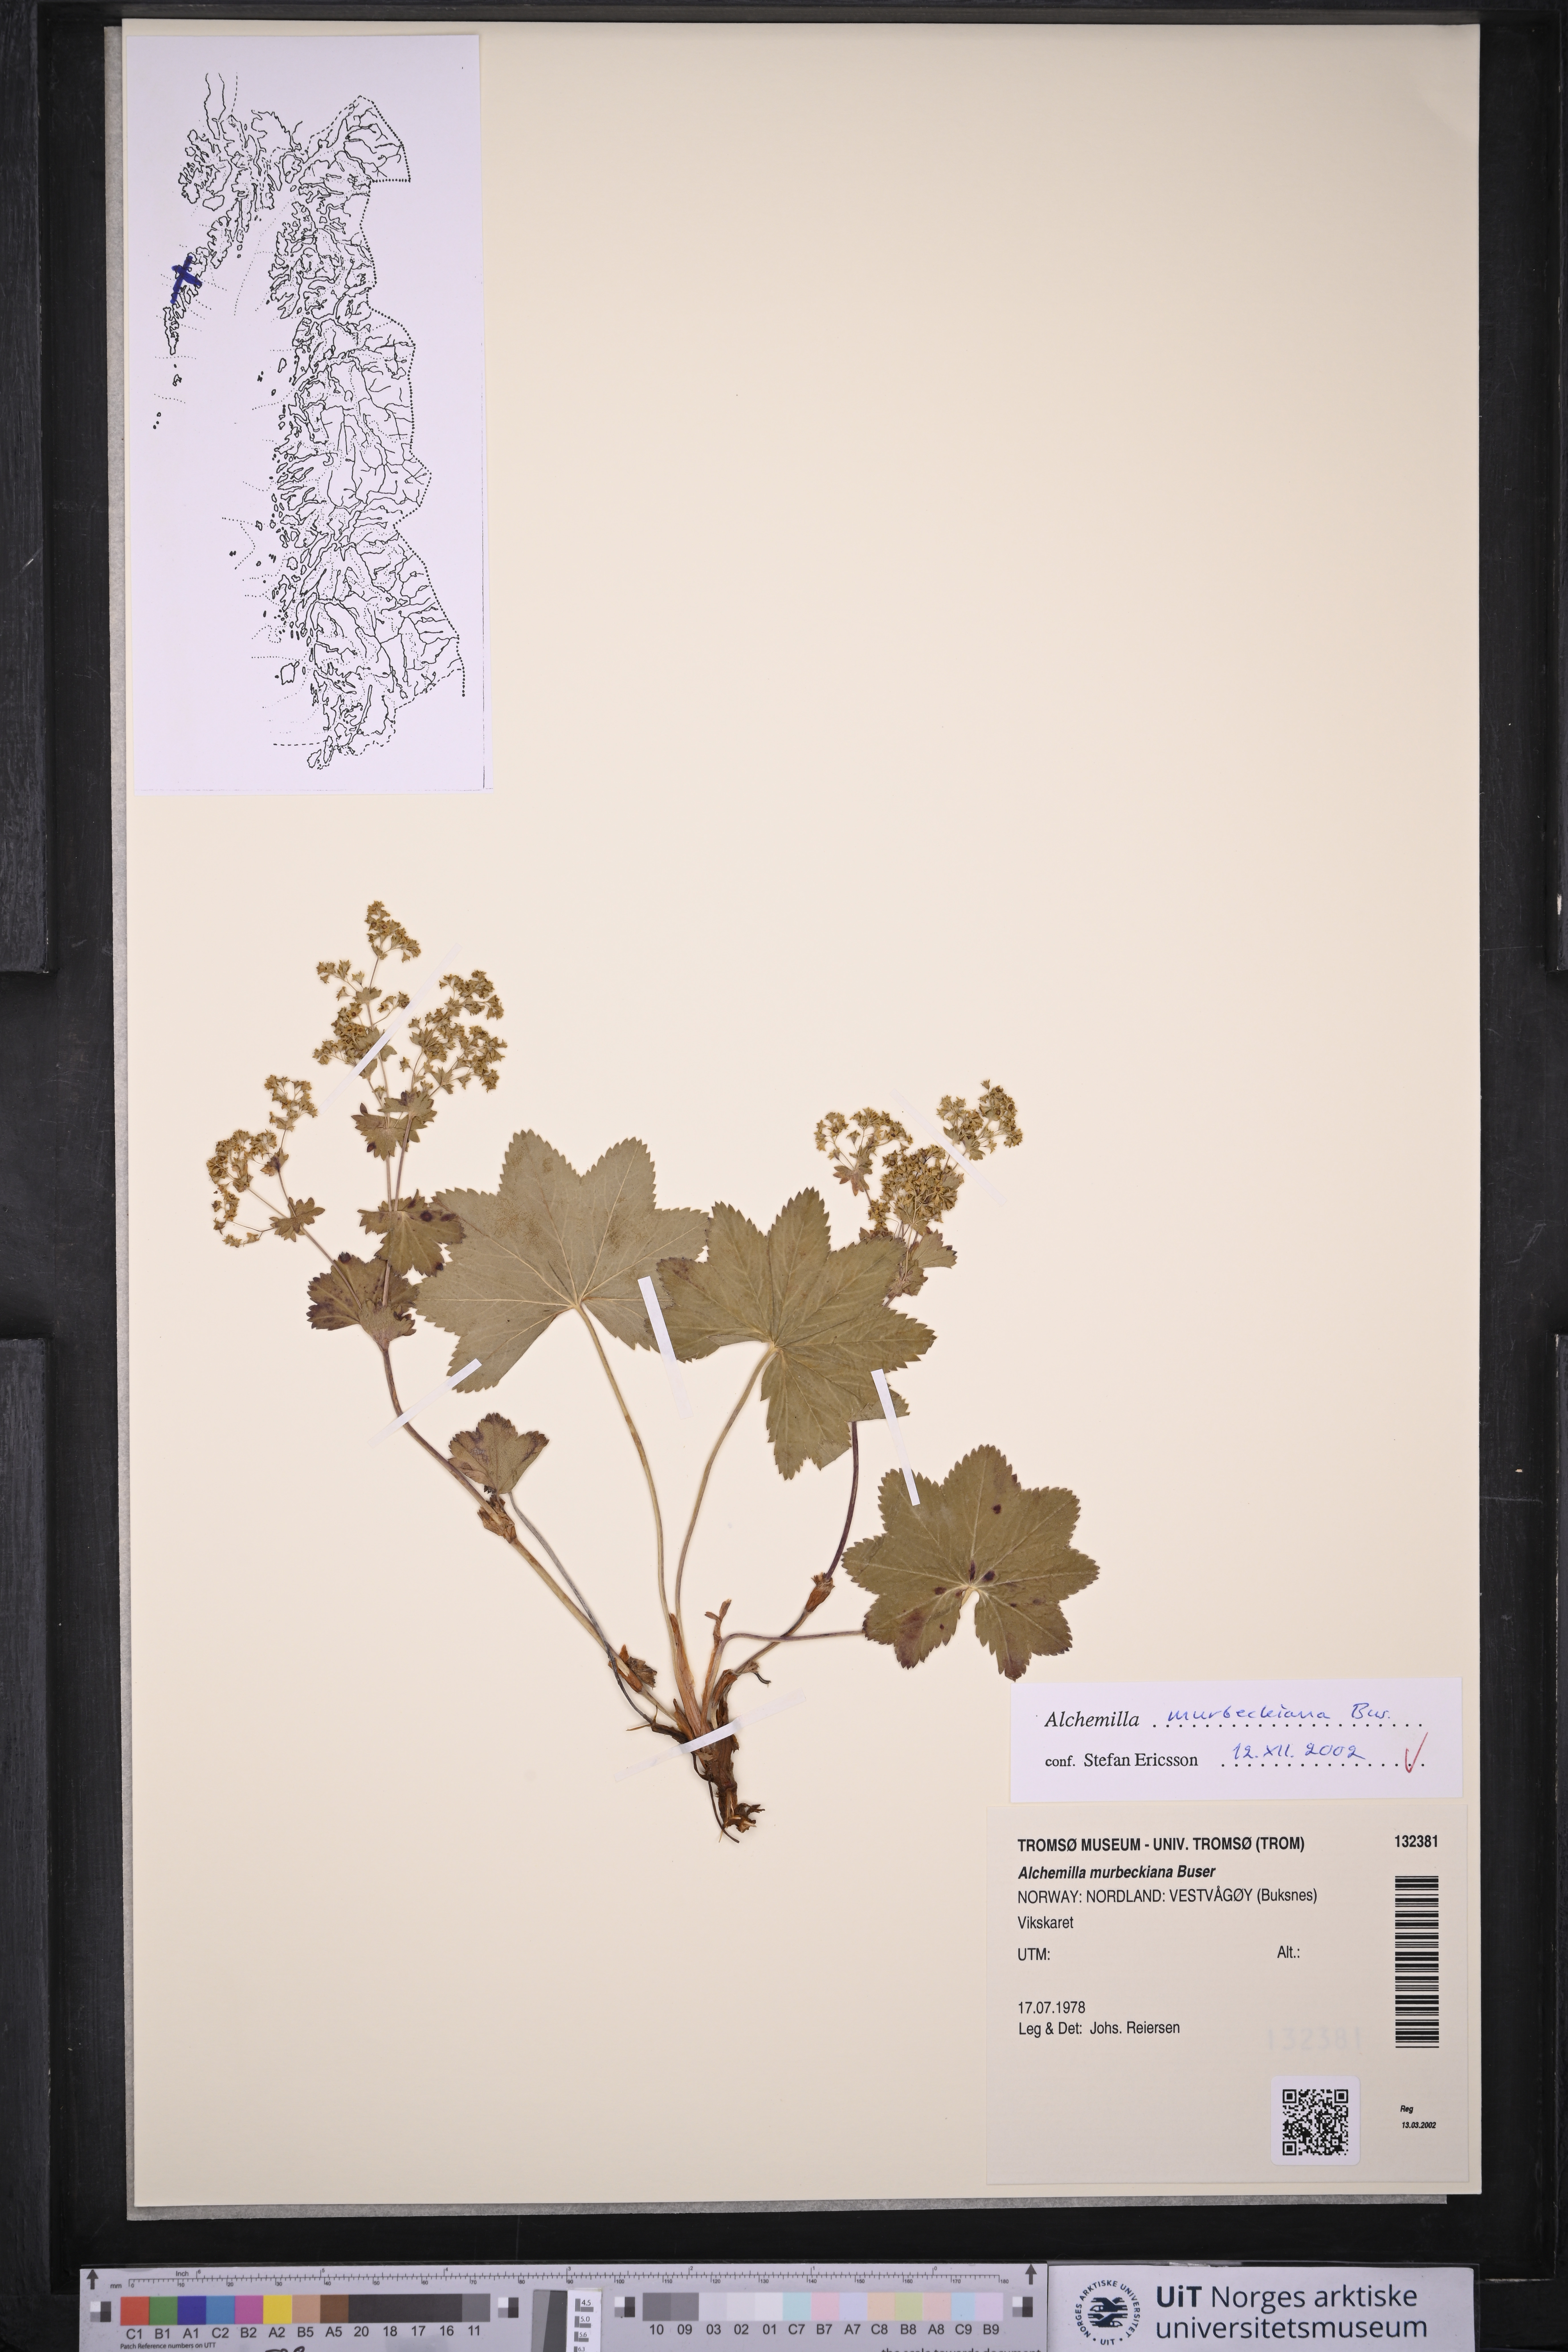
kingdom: Plantae
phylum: Tracheophyta
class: Magnoliopsida
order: Rosales
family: Rosaceae
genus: Alchemilla
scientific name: Alchemilla murbeckiana
